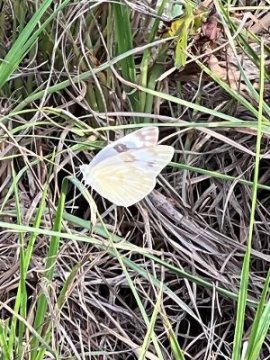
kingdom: Animalia
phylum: Arthropoda
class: Insecta
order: Lepidoptera
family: Pieridae
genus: Pontia
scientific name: Pontia protodice
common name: Checkered White
